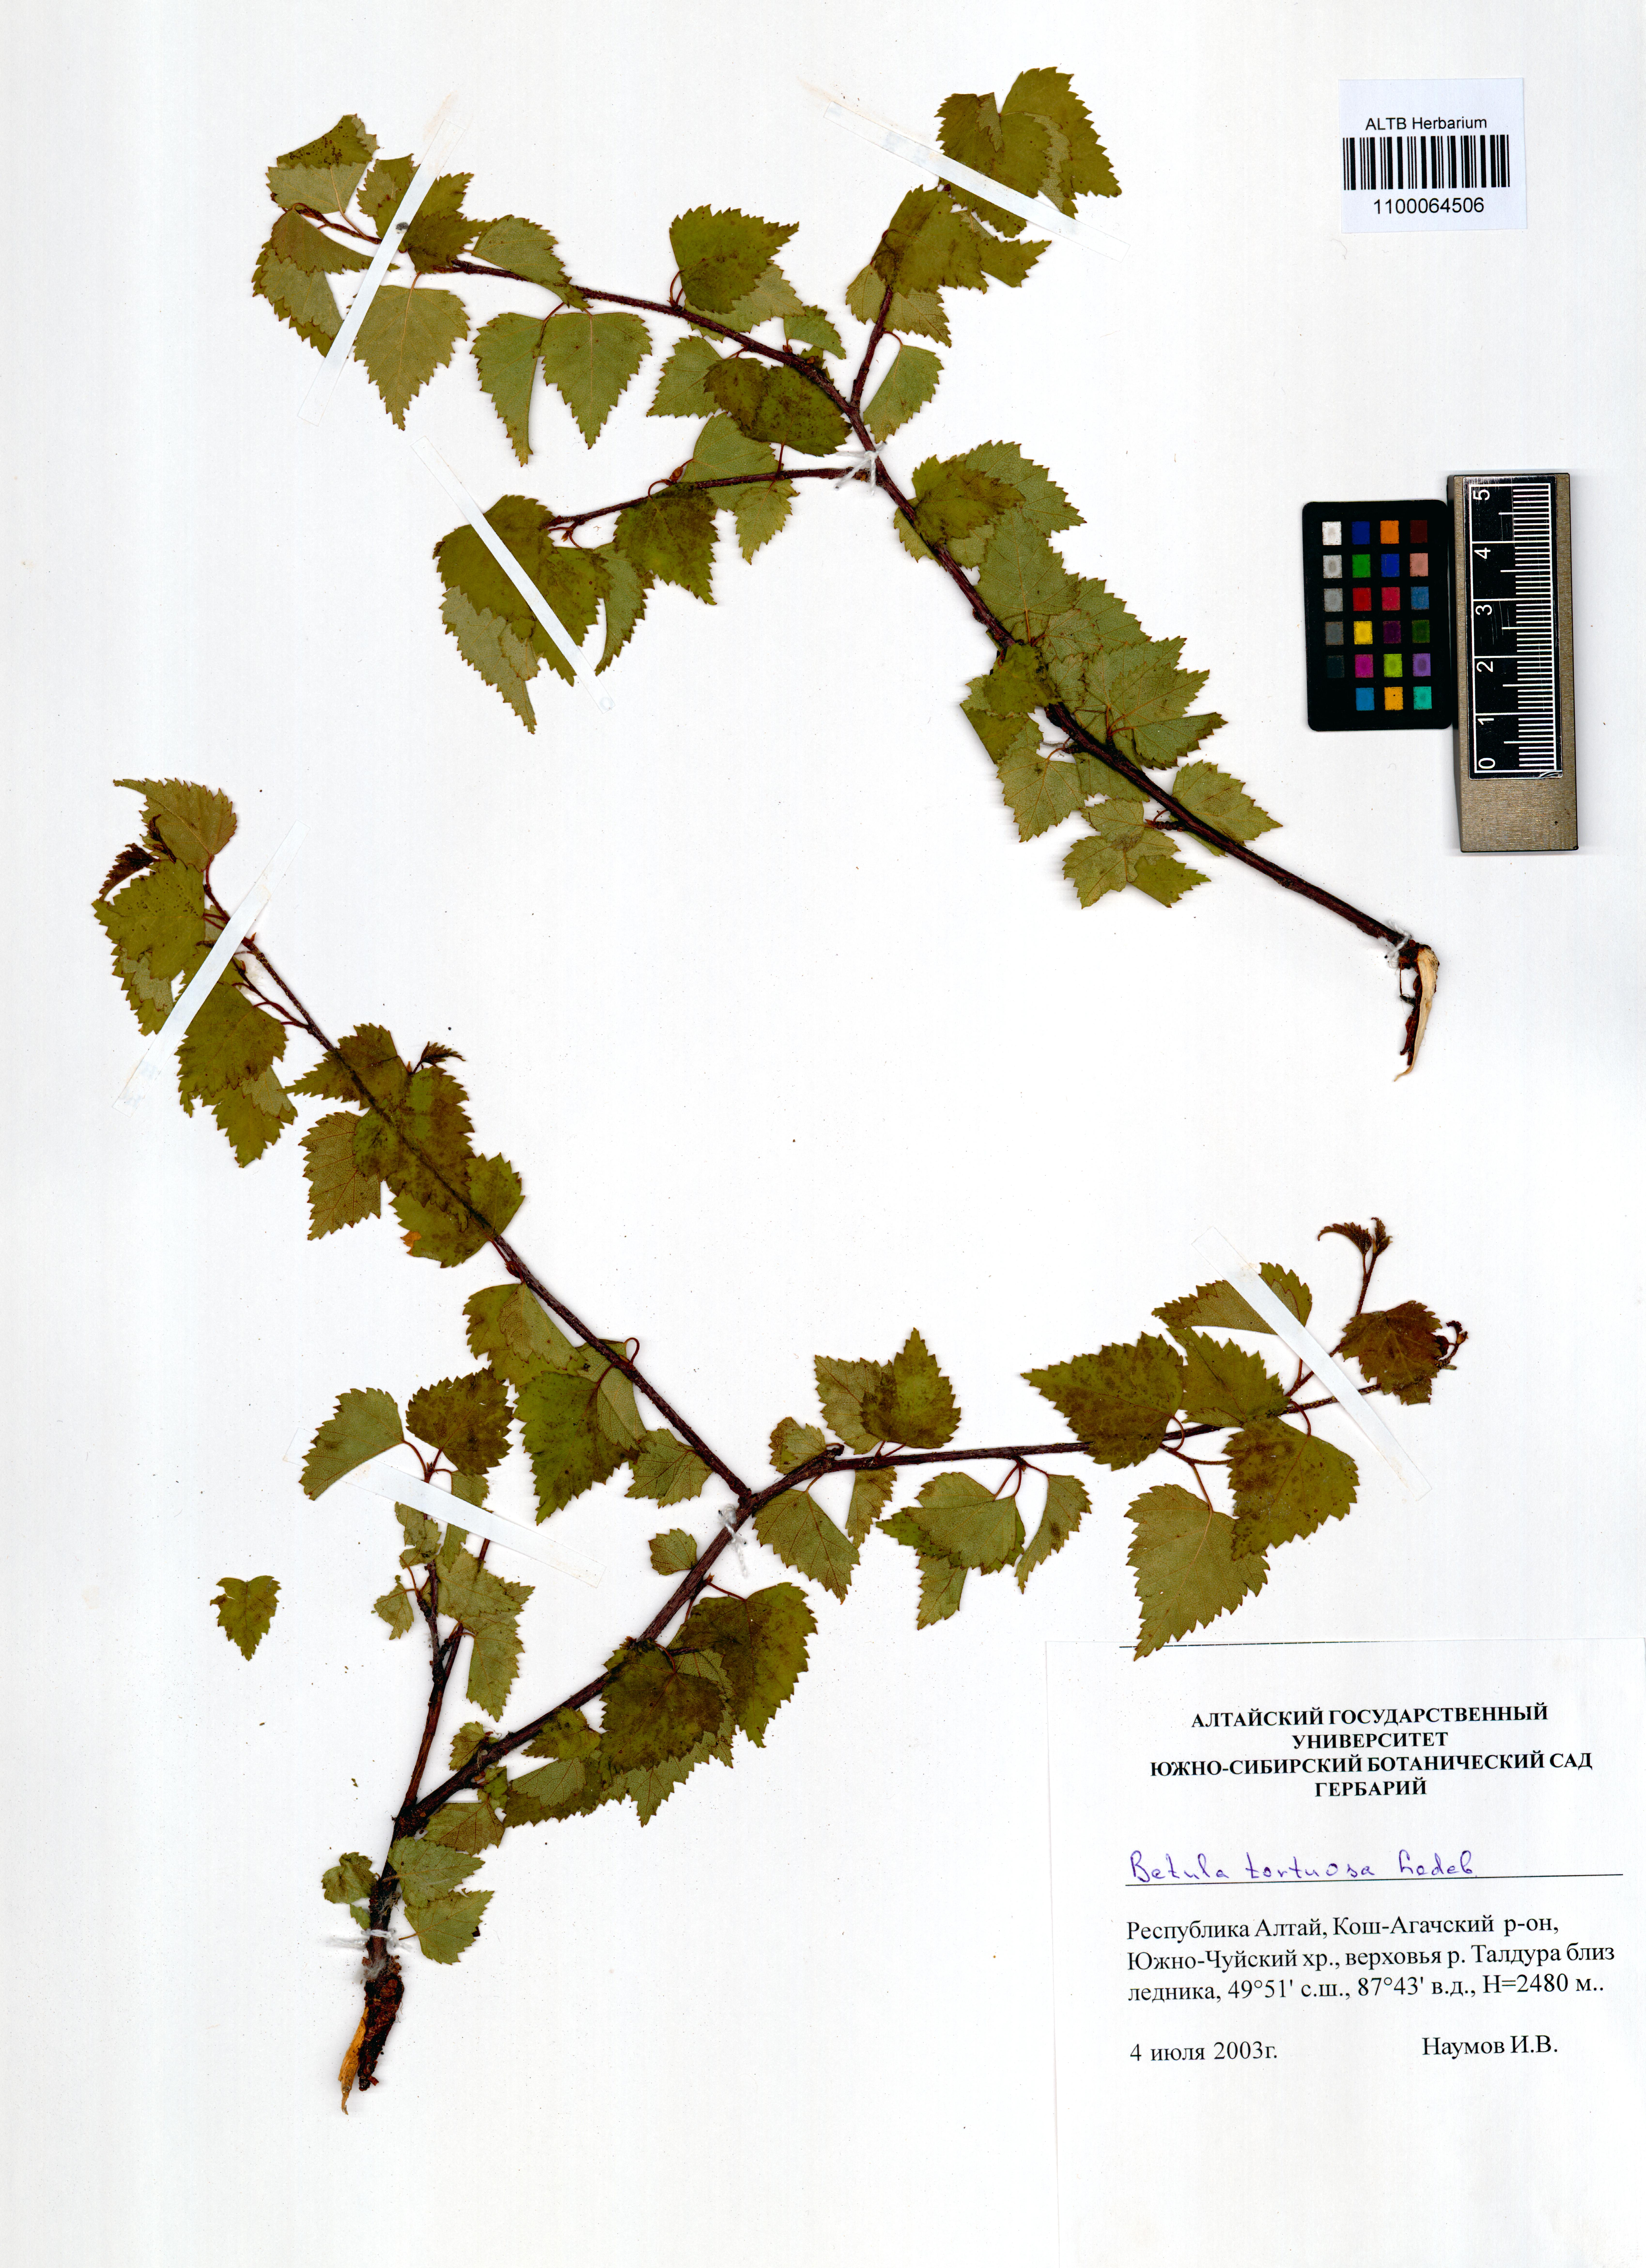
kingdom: Plantae
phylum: Tracheophyta
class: Magnoliopsida
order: Fagales
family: Betulaceae
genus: Betula
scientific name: Betula pubescens
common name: Downy birch
